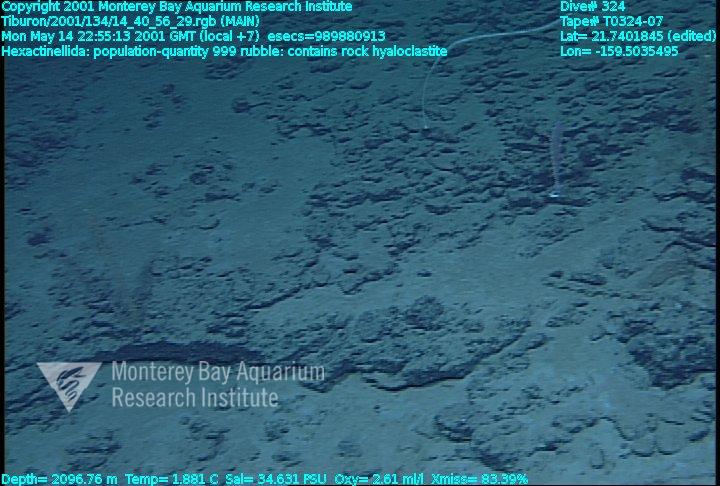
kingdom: Animalia
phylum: Porifera
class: Hexactinellida
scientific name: Hexactinellida
